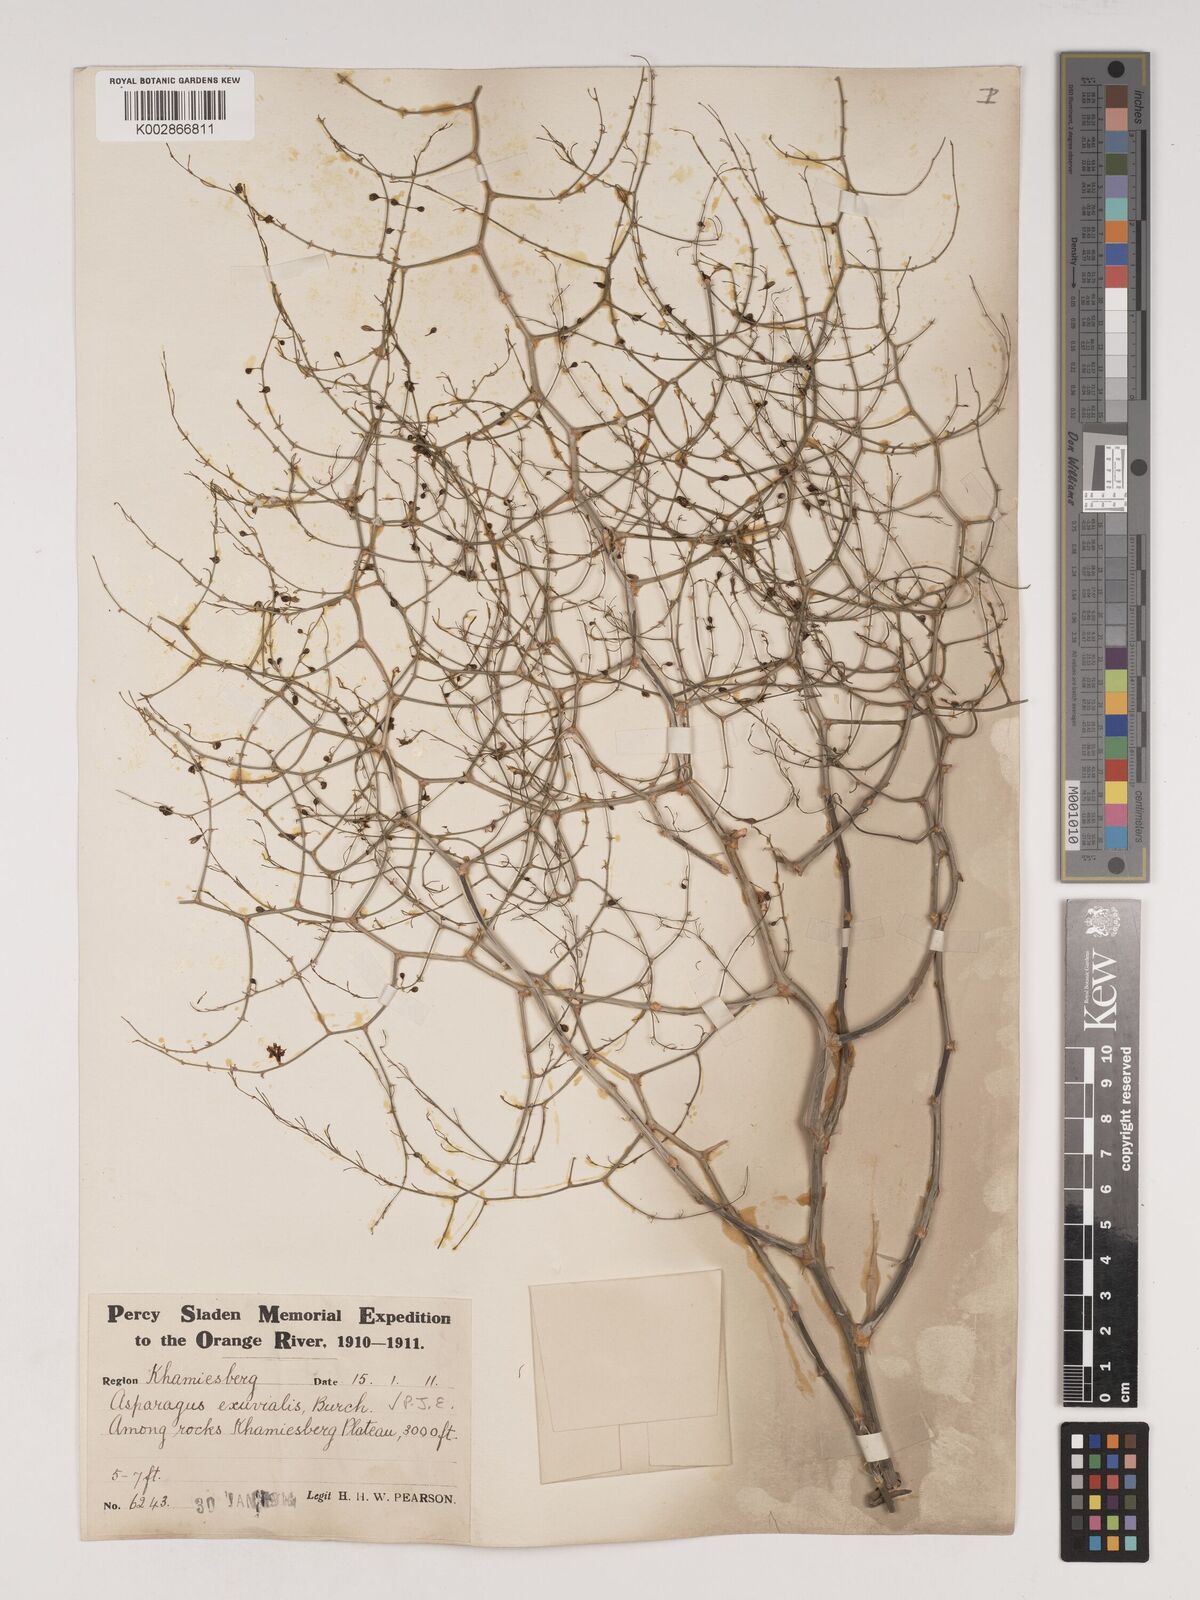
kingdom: Plantae
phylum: Tracheophyta
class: Liliopsida
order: Asparagales
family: Asparagaceae
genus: Asparagus
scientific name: Asparagus exuvialis
